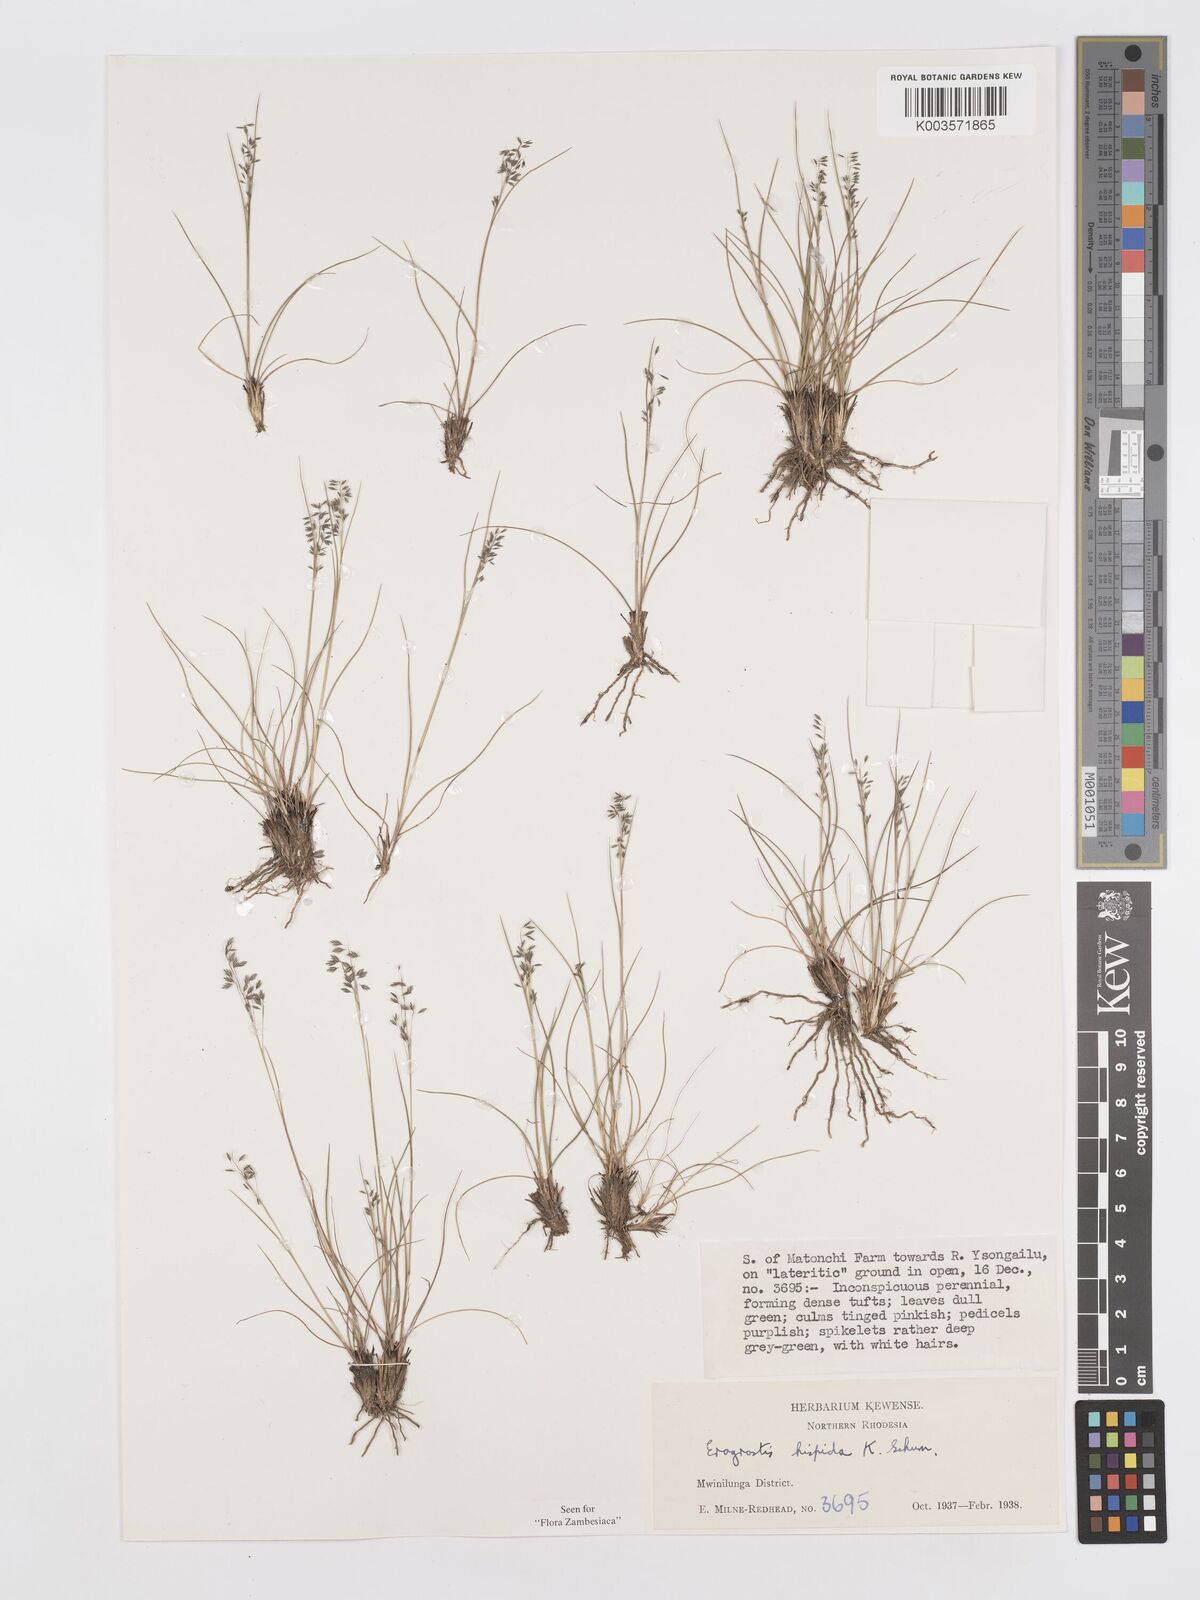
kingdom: Plantae
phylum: Tracheophyta
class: Liliopsida
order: Poales
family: Poaceae
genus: Eragrostis
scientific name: Eragrostis hispida
